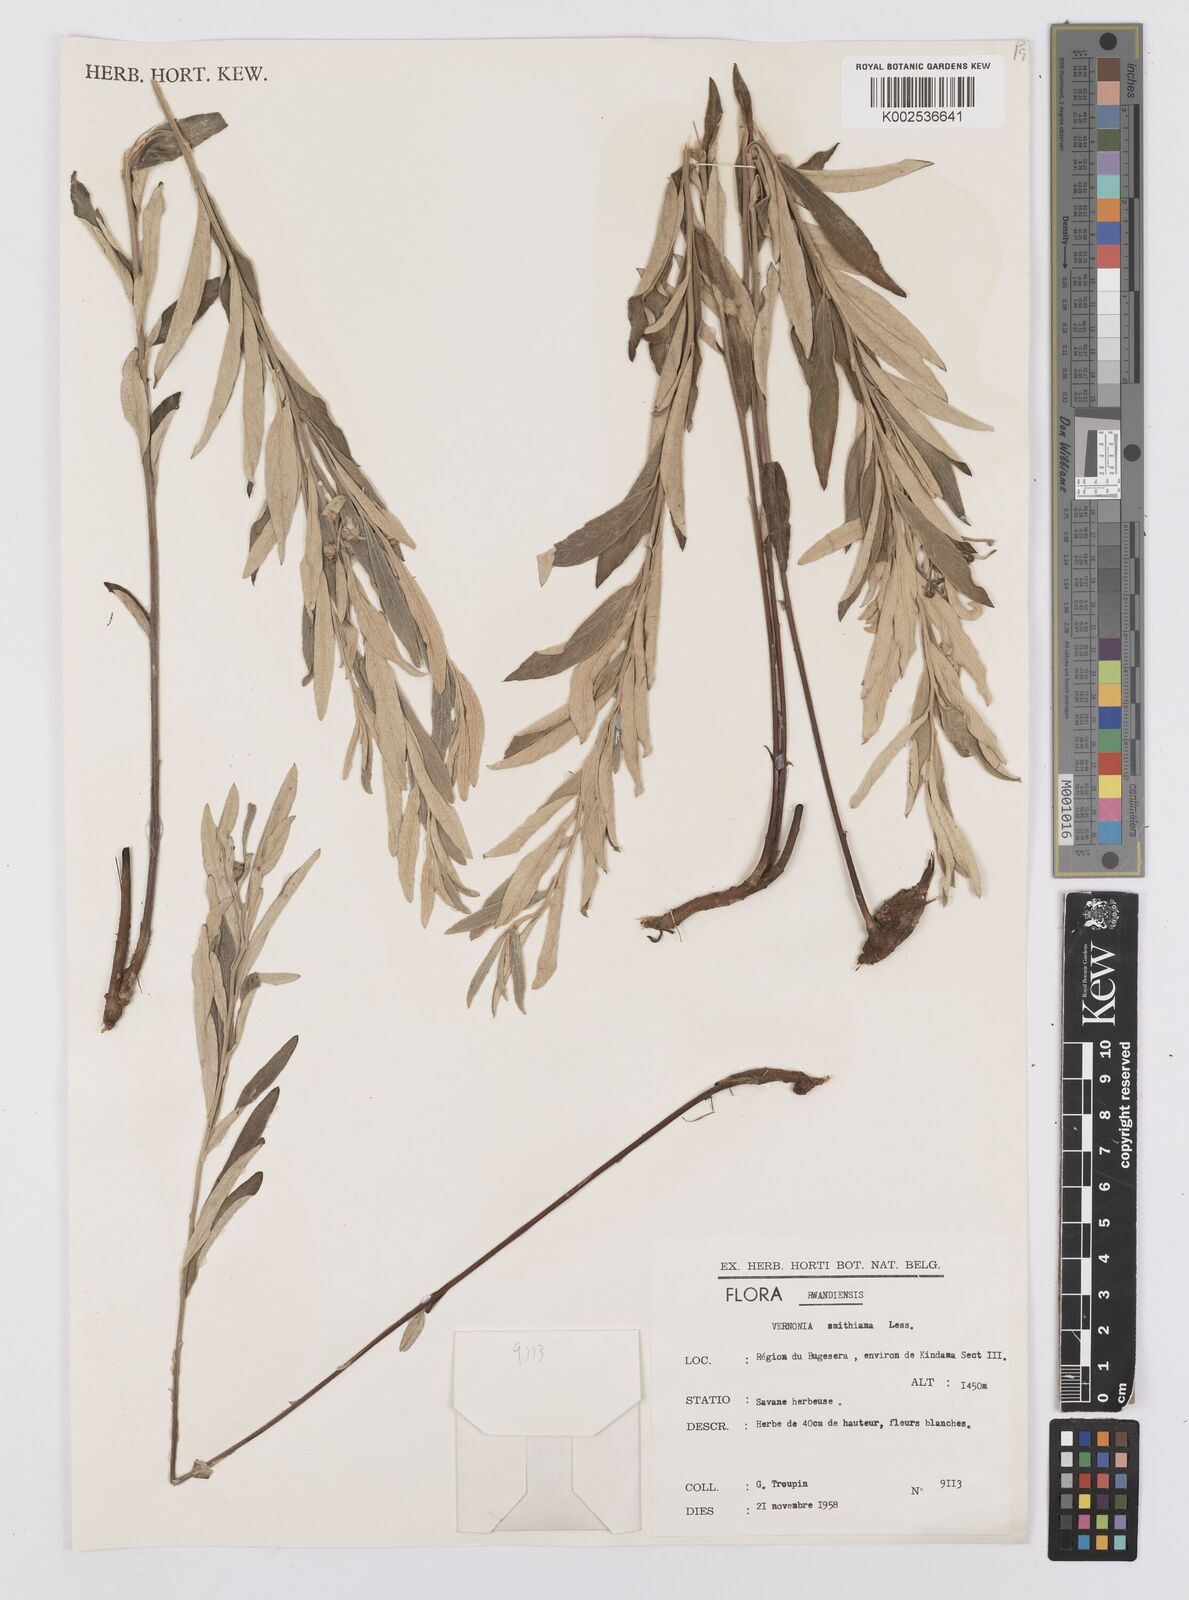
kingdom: Plantae
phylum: Tracheophyta
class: Magnoliopsida
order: Asterales
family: Asteraceae
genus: Hilliardiella
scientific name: Hilliardiella smithiana
